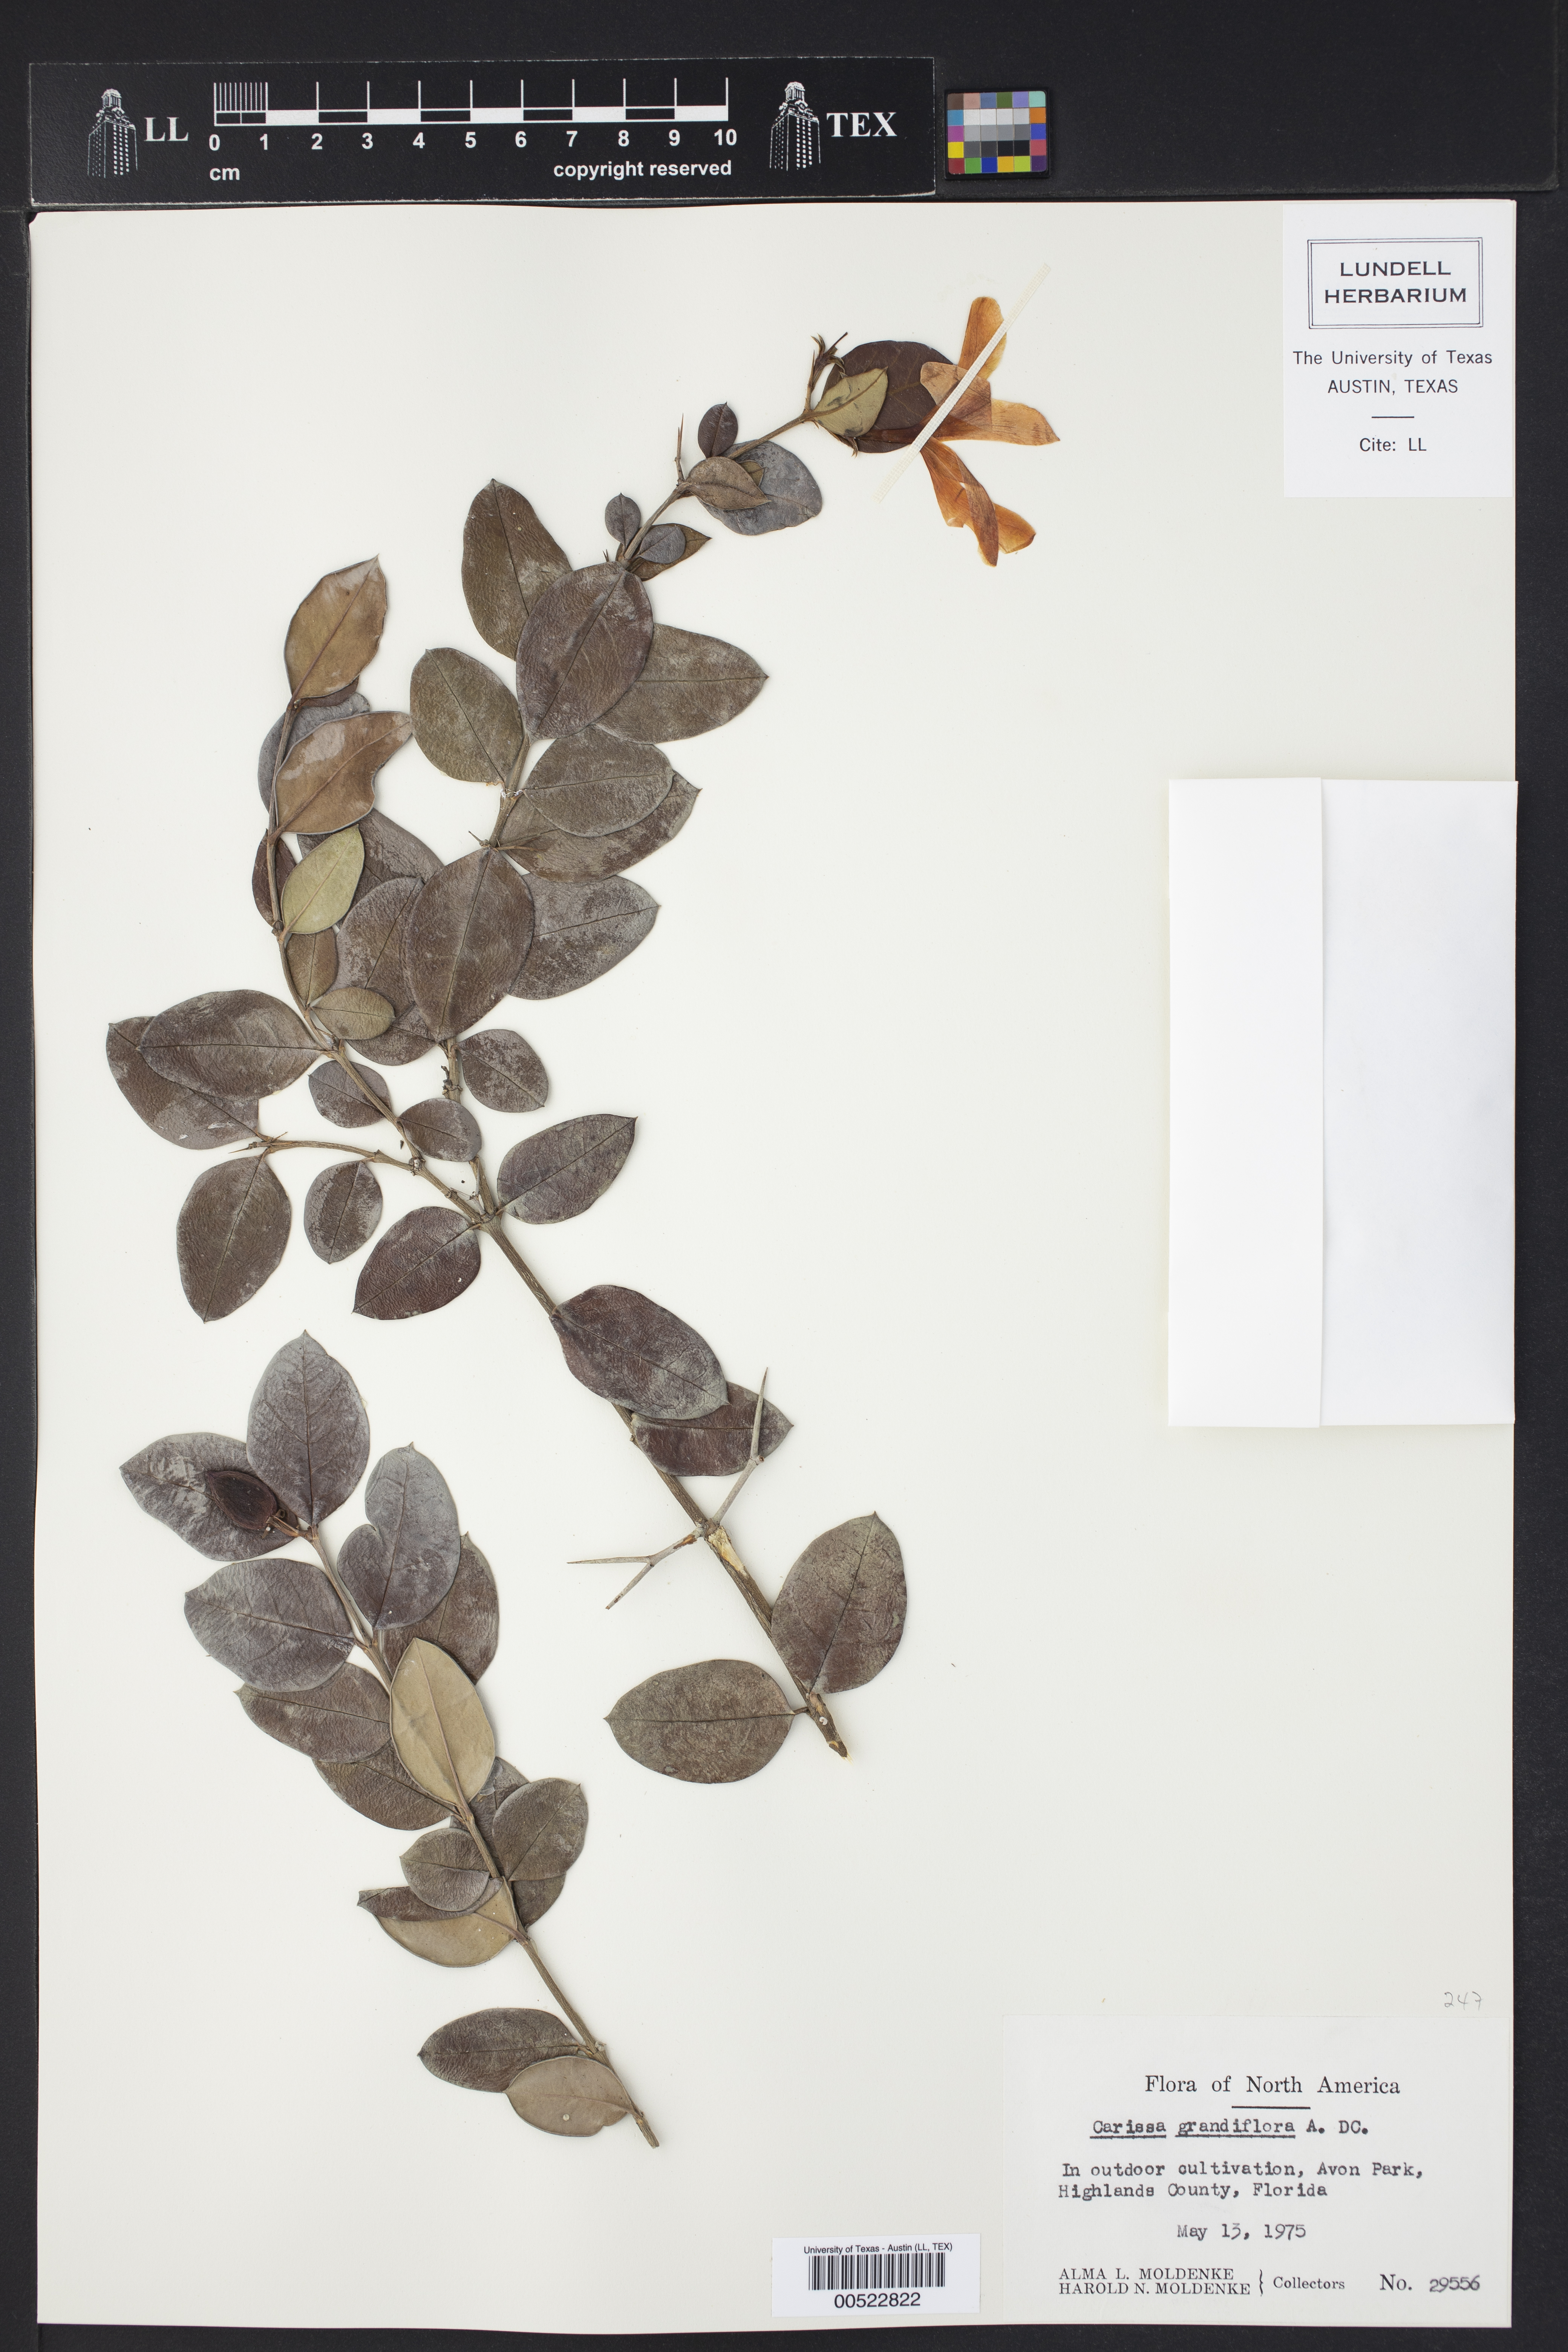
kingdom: Plantae
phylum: Tracheophyta
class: Magnoliopsida
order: Gentianales
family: Apocynaceae
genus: Carissa
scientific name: Carissa macrocarpa
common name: Natal plum
